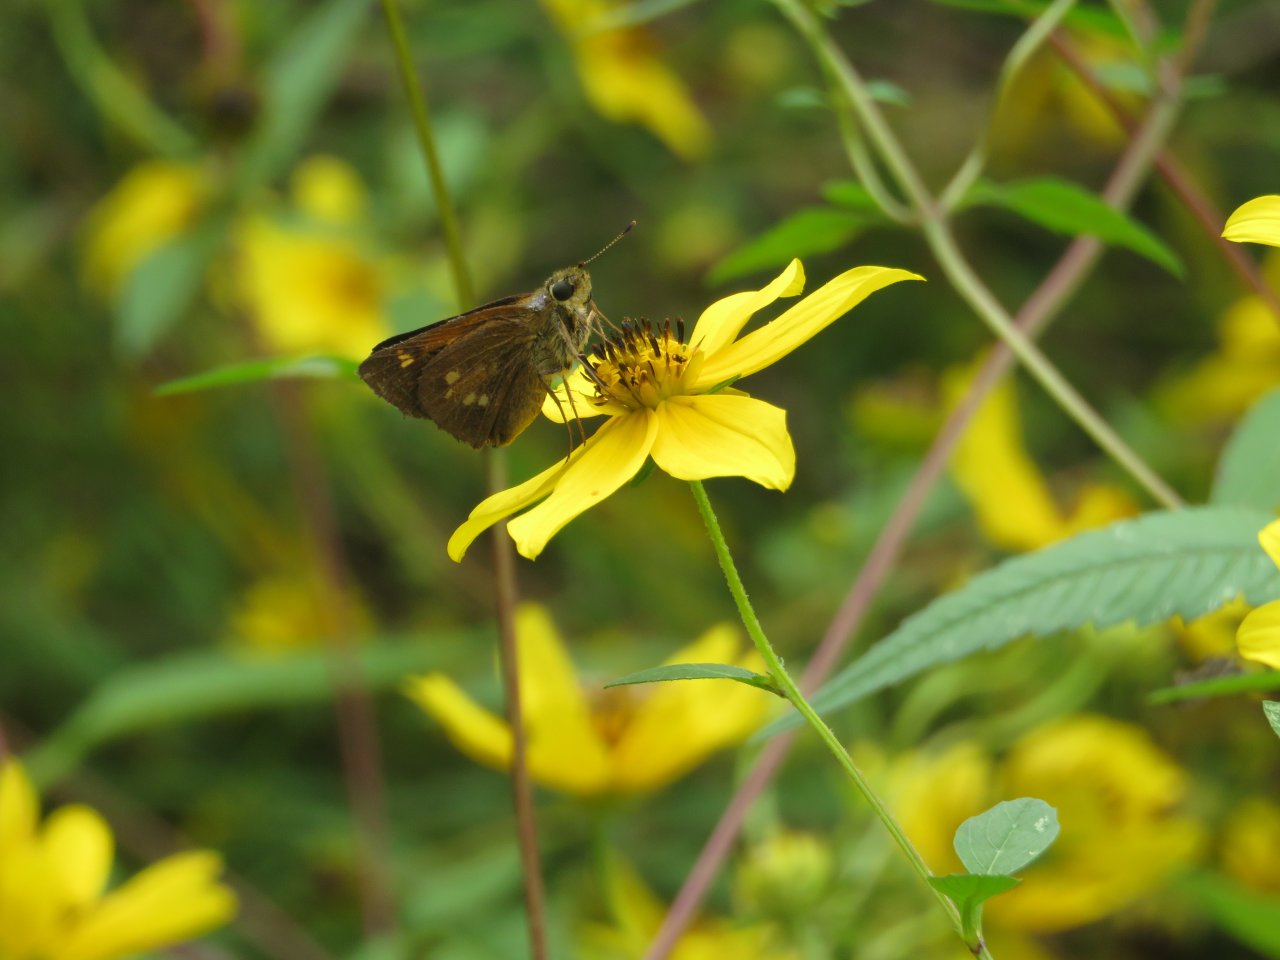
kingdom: Animalia
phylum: Arthropoda
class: Insecta
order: Lepidoptera
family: Hesperiidae
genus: Poanes
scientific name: Poanes yehl
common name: Yehl Skipper
